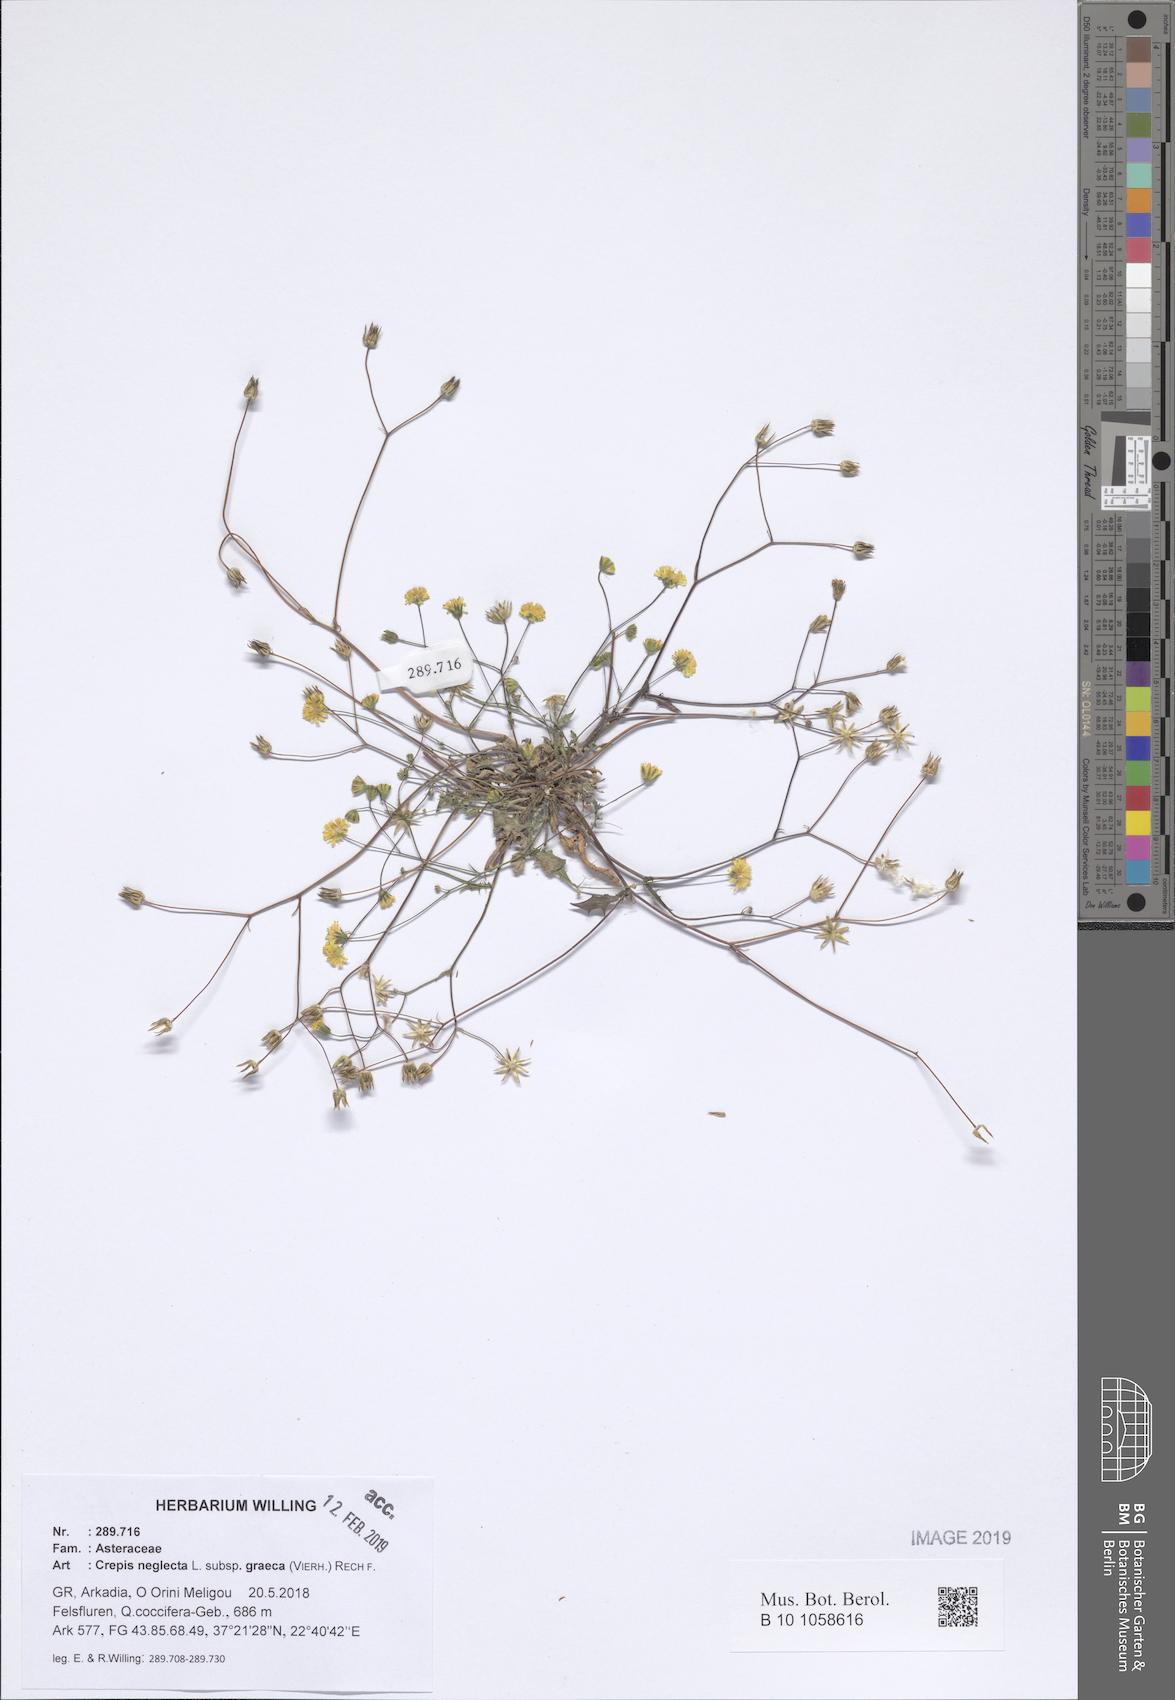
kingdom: Plantae
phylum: Tracheophyta
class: Magnoliopsida
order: Asterales
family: Asteraceae
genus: Crepis
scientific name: Crepis neglecta
